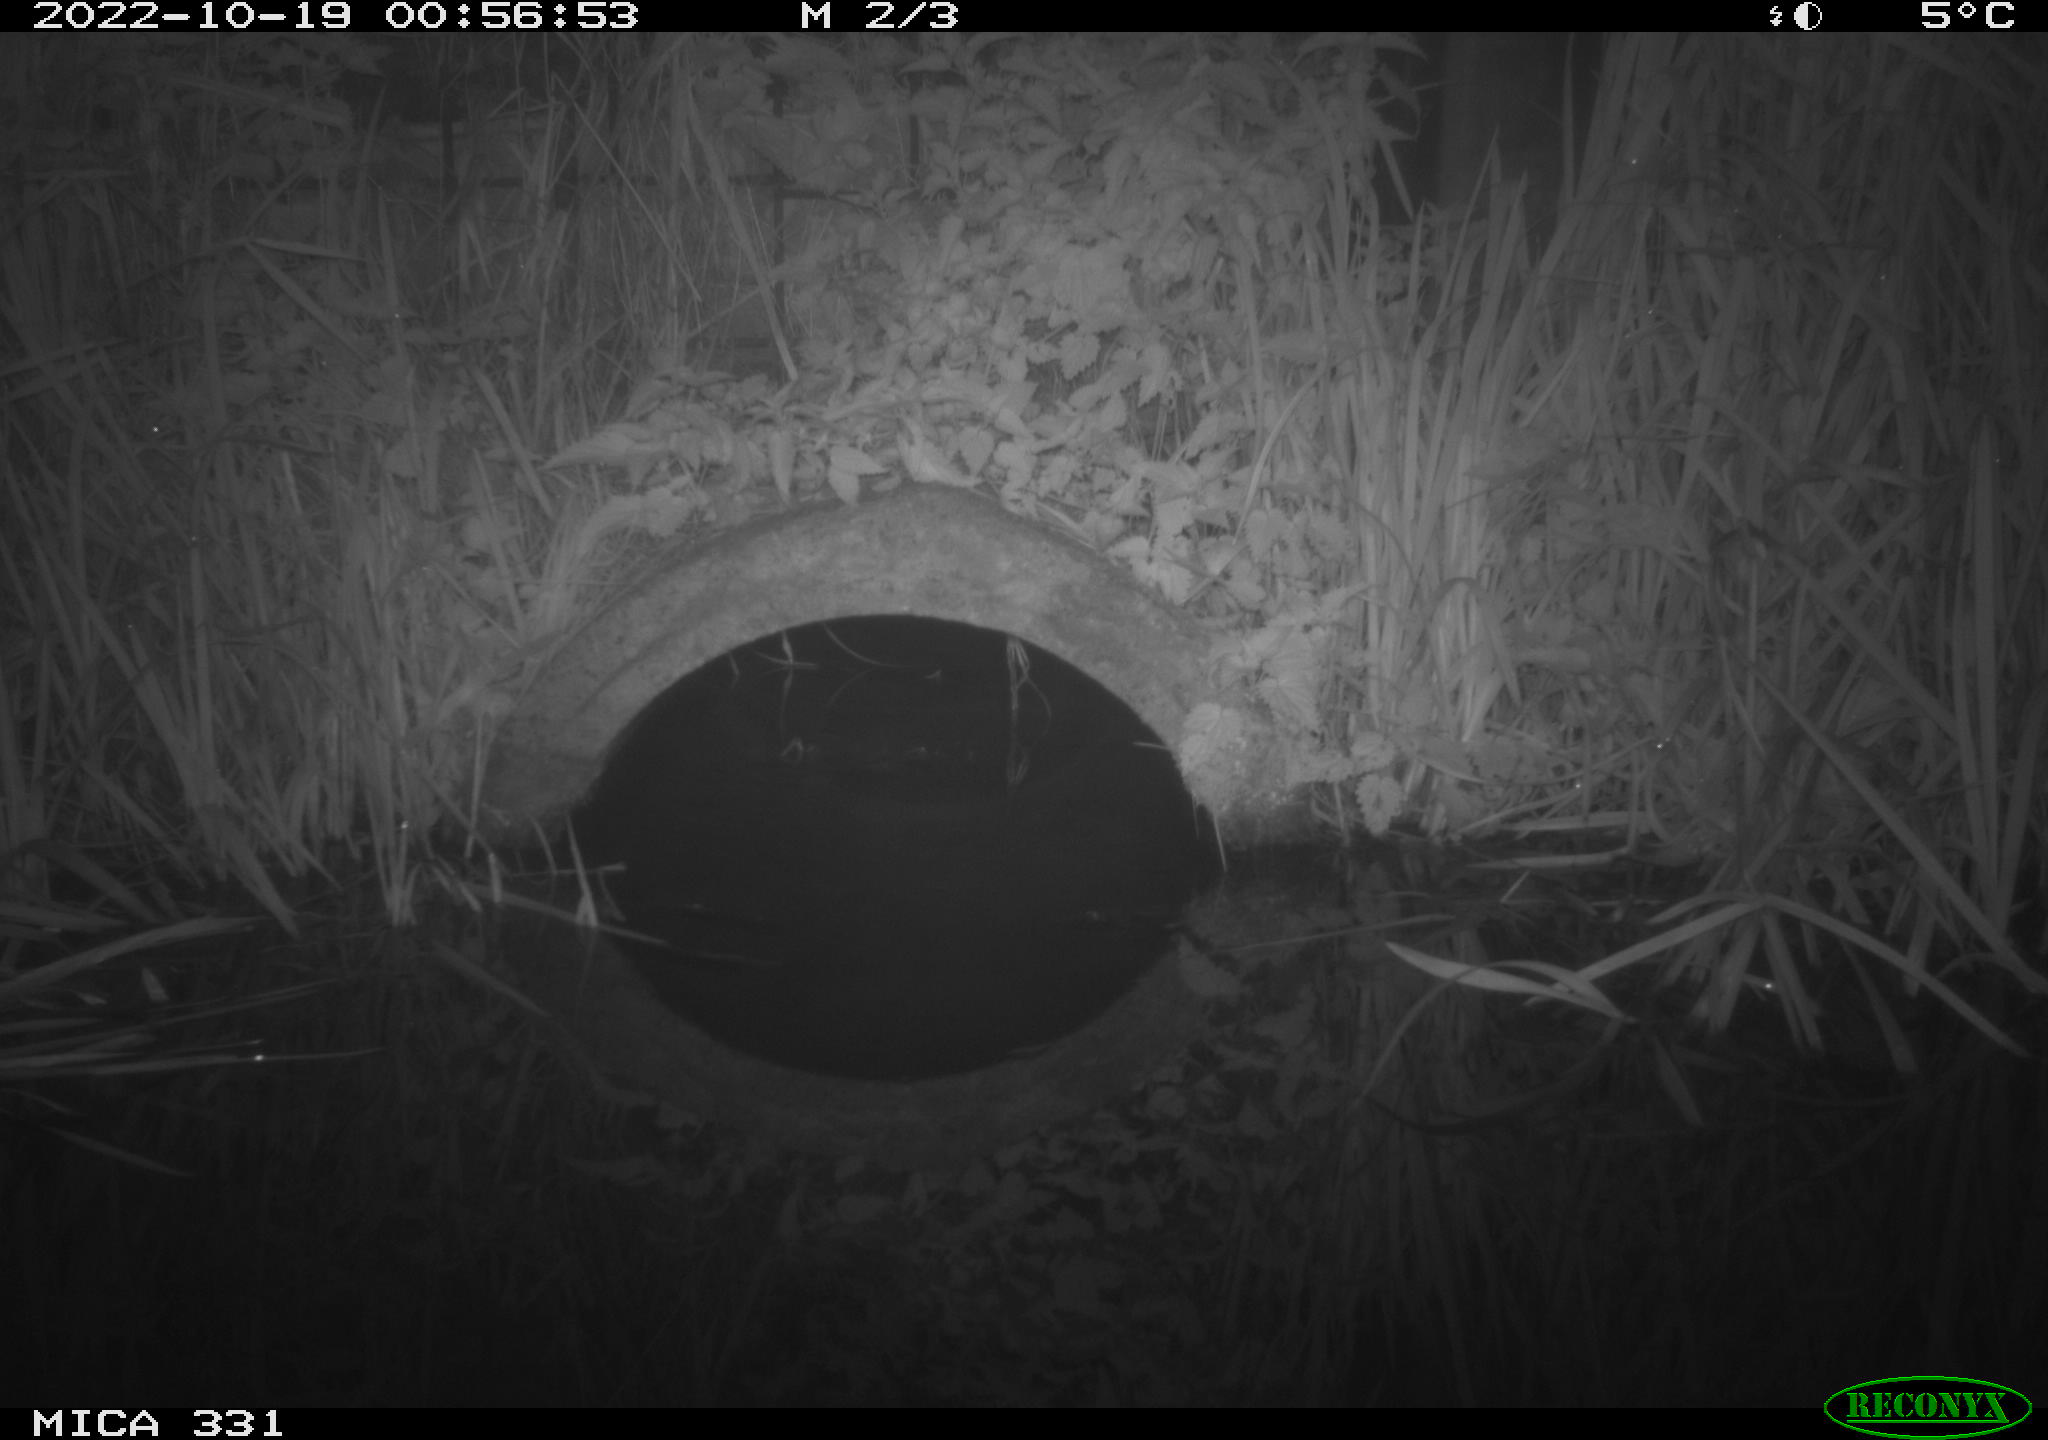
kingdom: Animalia
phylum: Chordata
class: Mammalia
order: Rodentia
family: Muridae
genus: Rattus
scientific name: Rattus norvegicus
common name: Brown rat
